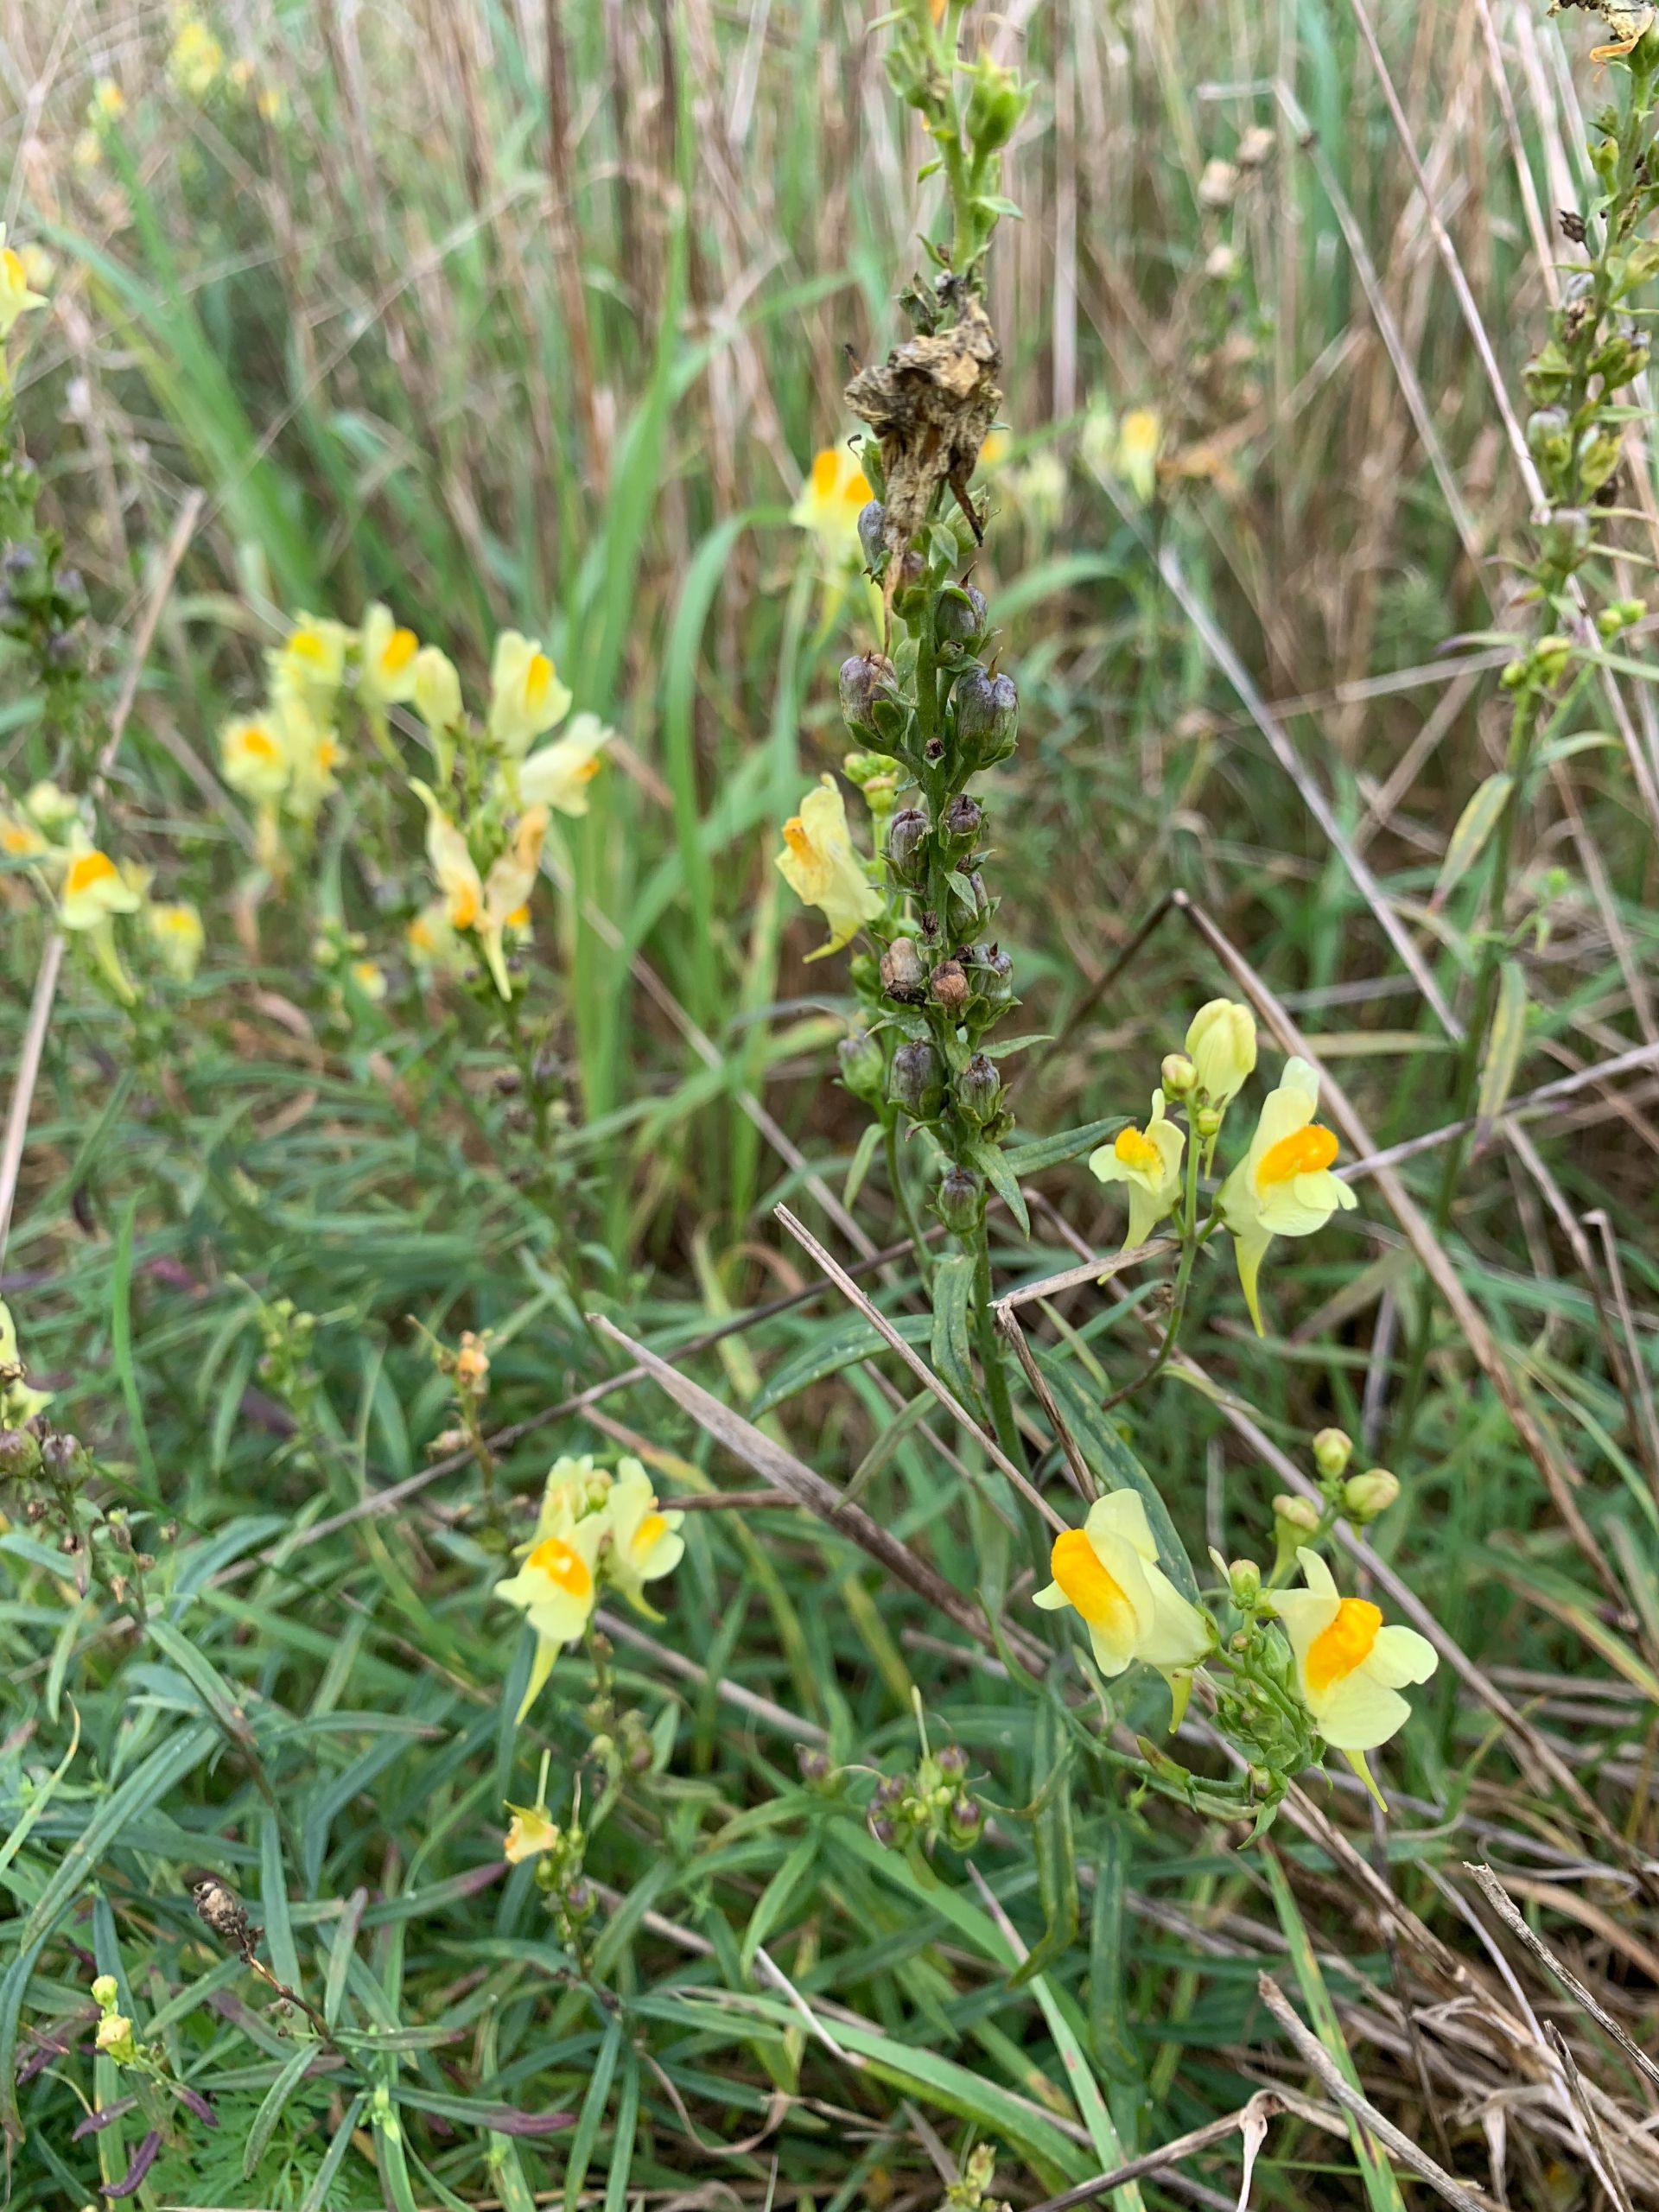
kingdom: Plantae
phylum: Tracheophyta
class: Magnoliopsida
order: Lamiales
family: Plantaginaceae
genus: Linaria
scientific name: Linaria vulgaris
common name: Almindelig torskemund
